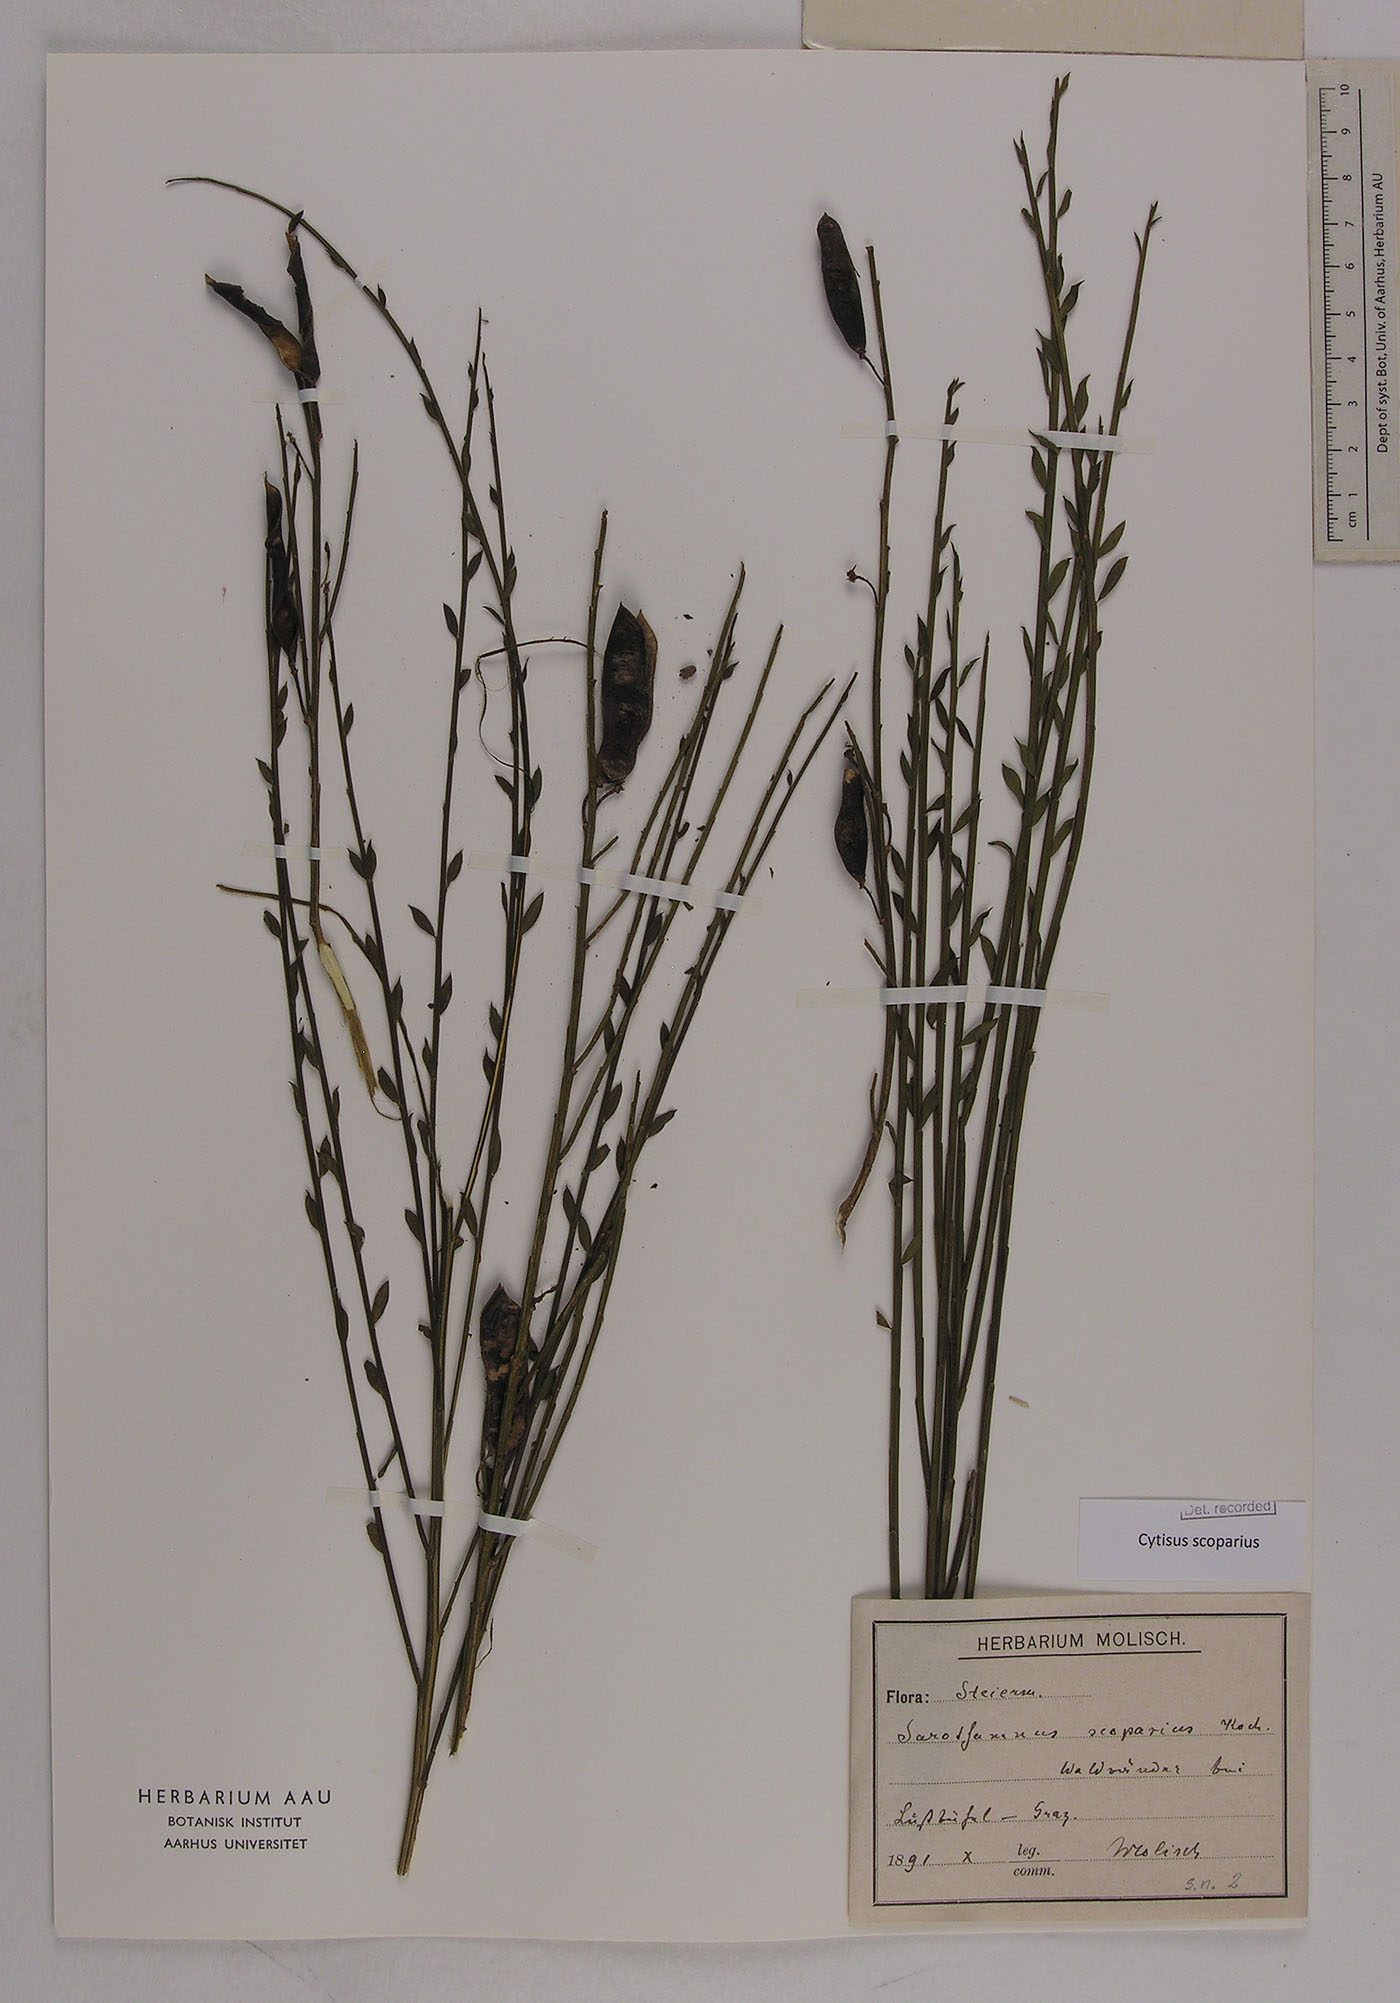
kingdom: Plantae
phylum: Tracheophyta
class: Magnoliopsida
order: Fabales
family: Fabaceae
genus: Cytisus
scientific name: Cytisus scoparius
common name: Scotch broom
